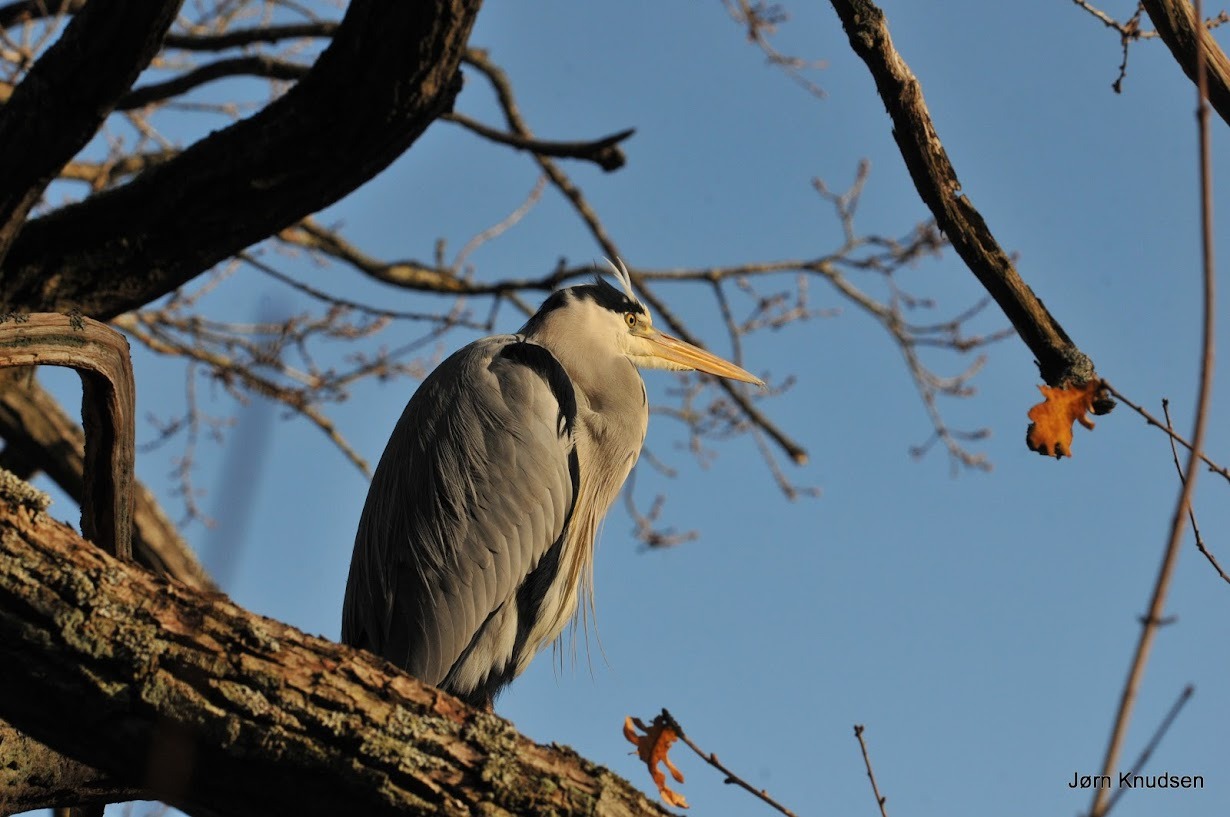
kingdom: Animalia
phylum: Chordata
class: Aves
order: Pelecaniformes
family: Ardeidae
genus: Ardea
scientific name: Ardea cinerea
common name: Fiskehejre
